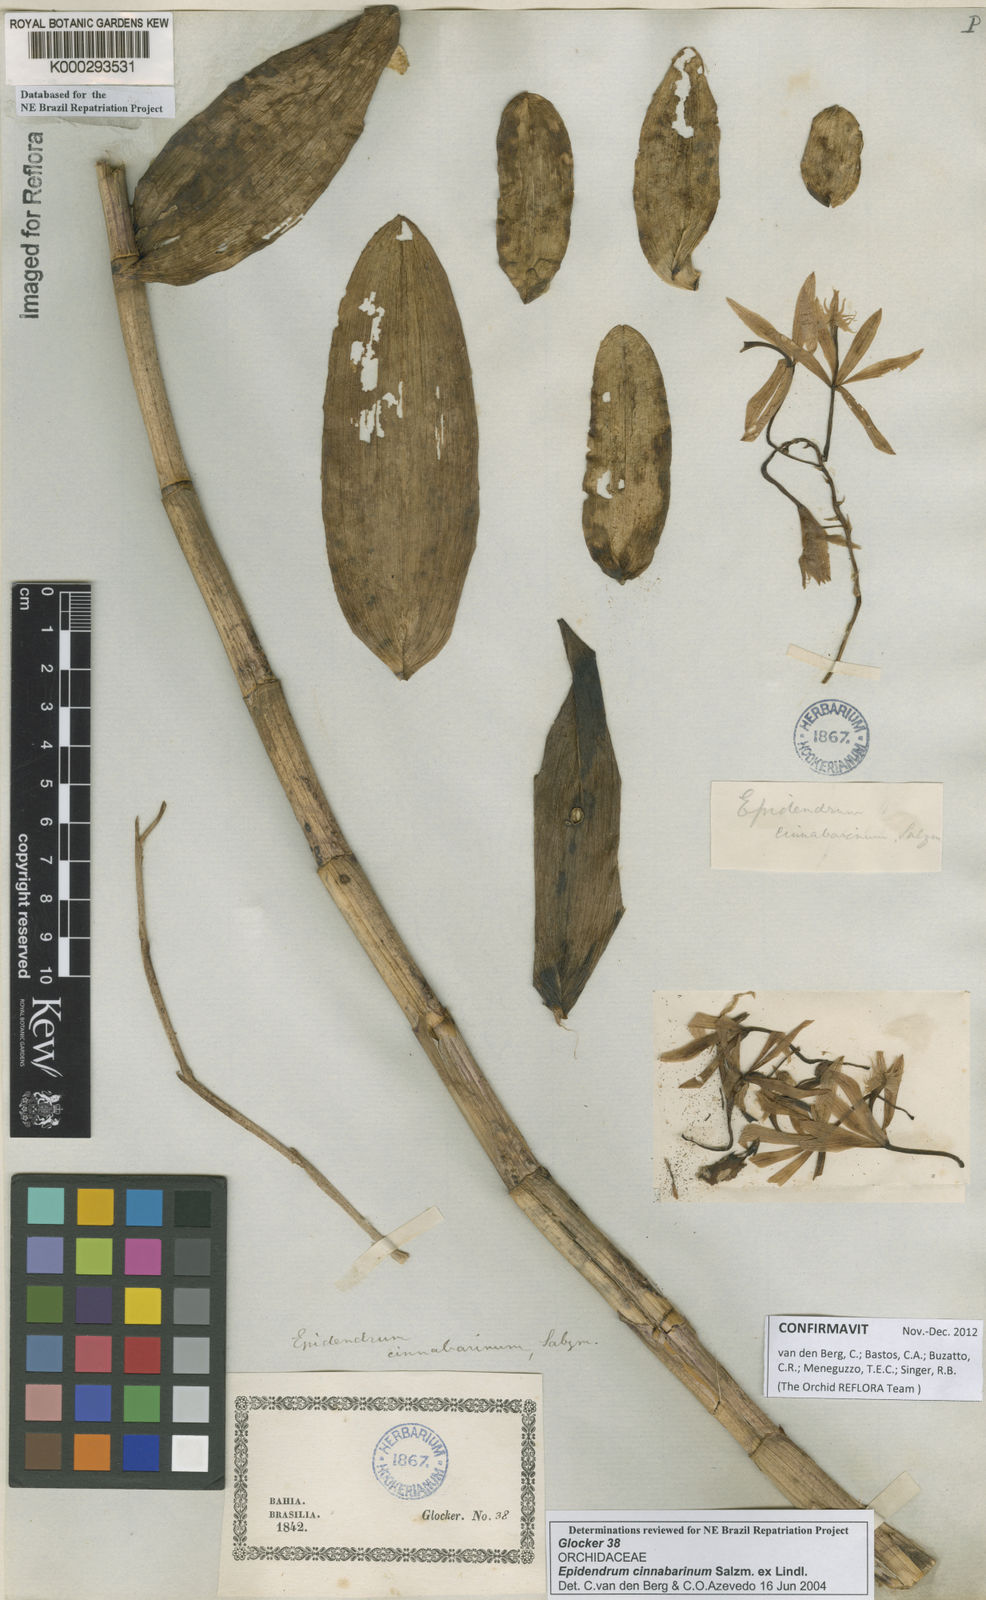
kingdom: Plantae
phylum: Tracheophyta
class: Liliopsida
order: Asparagales
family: Orchidaceae
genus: Epidendrum
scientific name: Epidendrum cinnabarinum
